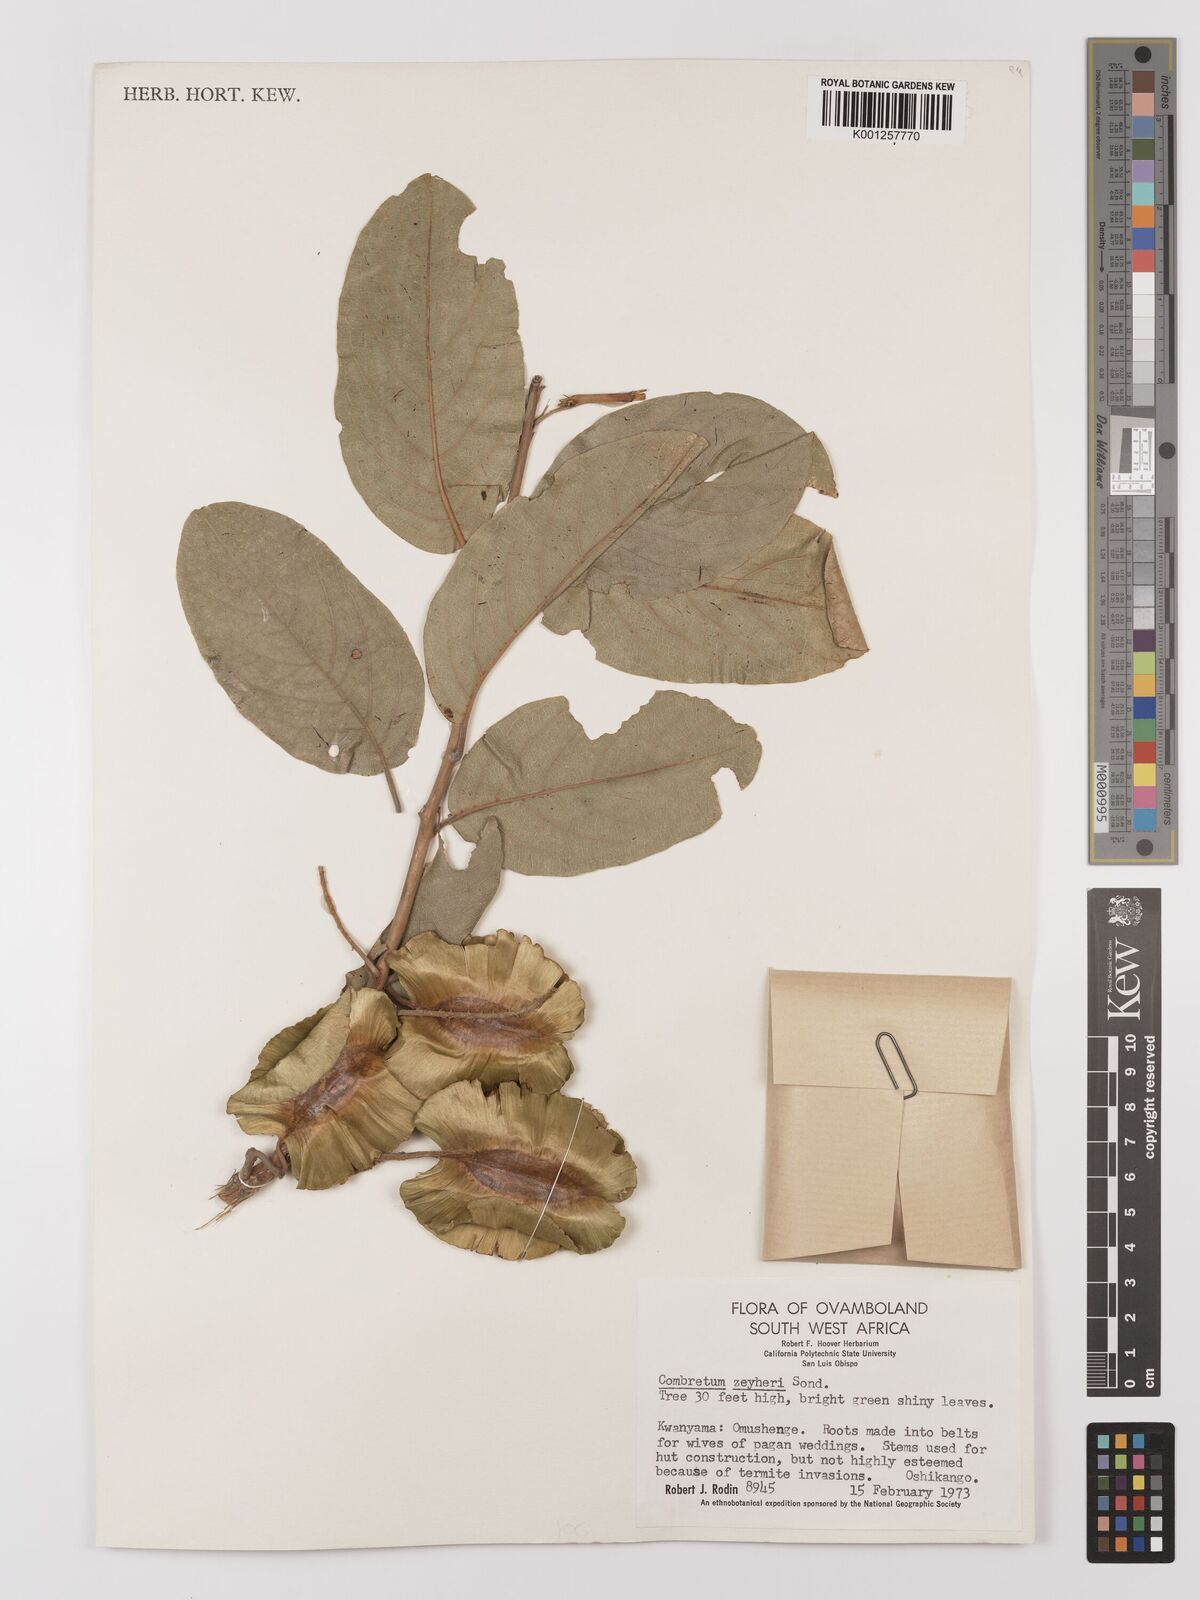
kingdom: Plantae
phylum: Tracheophyta
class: Magnoliopsida
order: Myrtales
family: Combretaceae
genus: Combretum
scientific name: Combretum zeyheri
